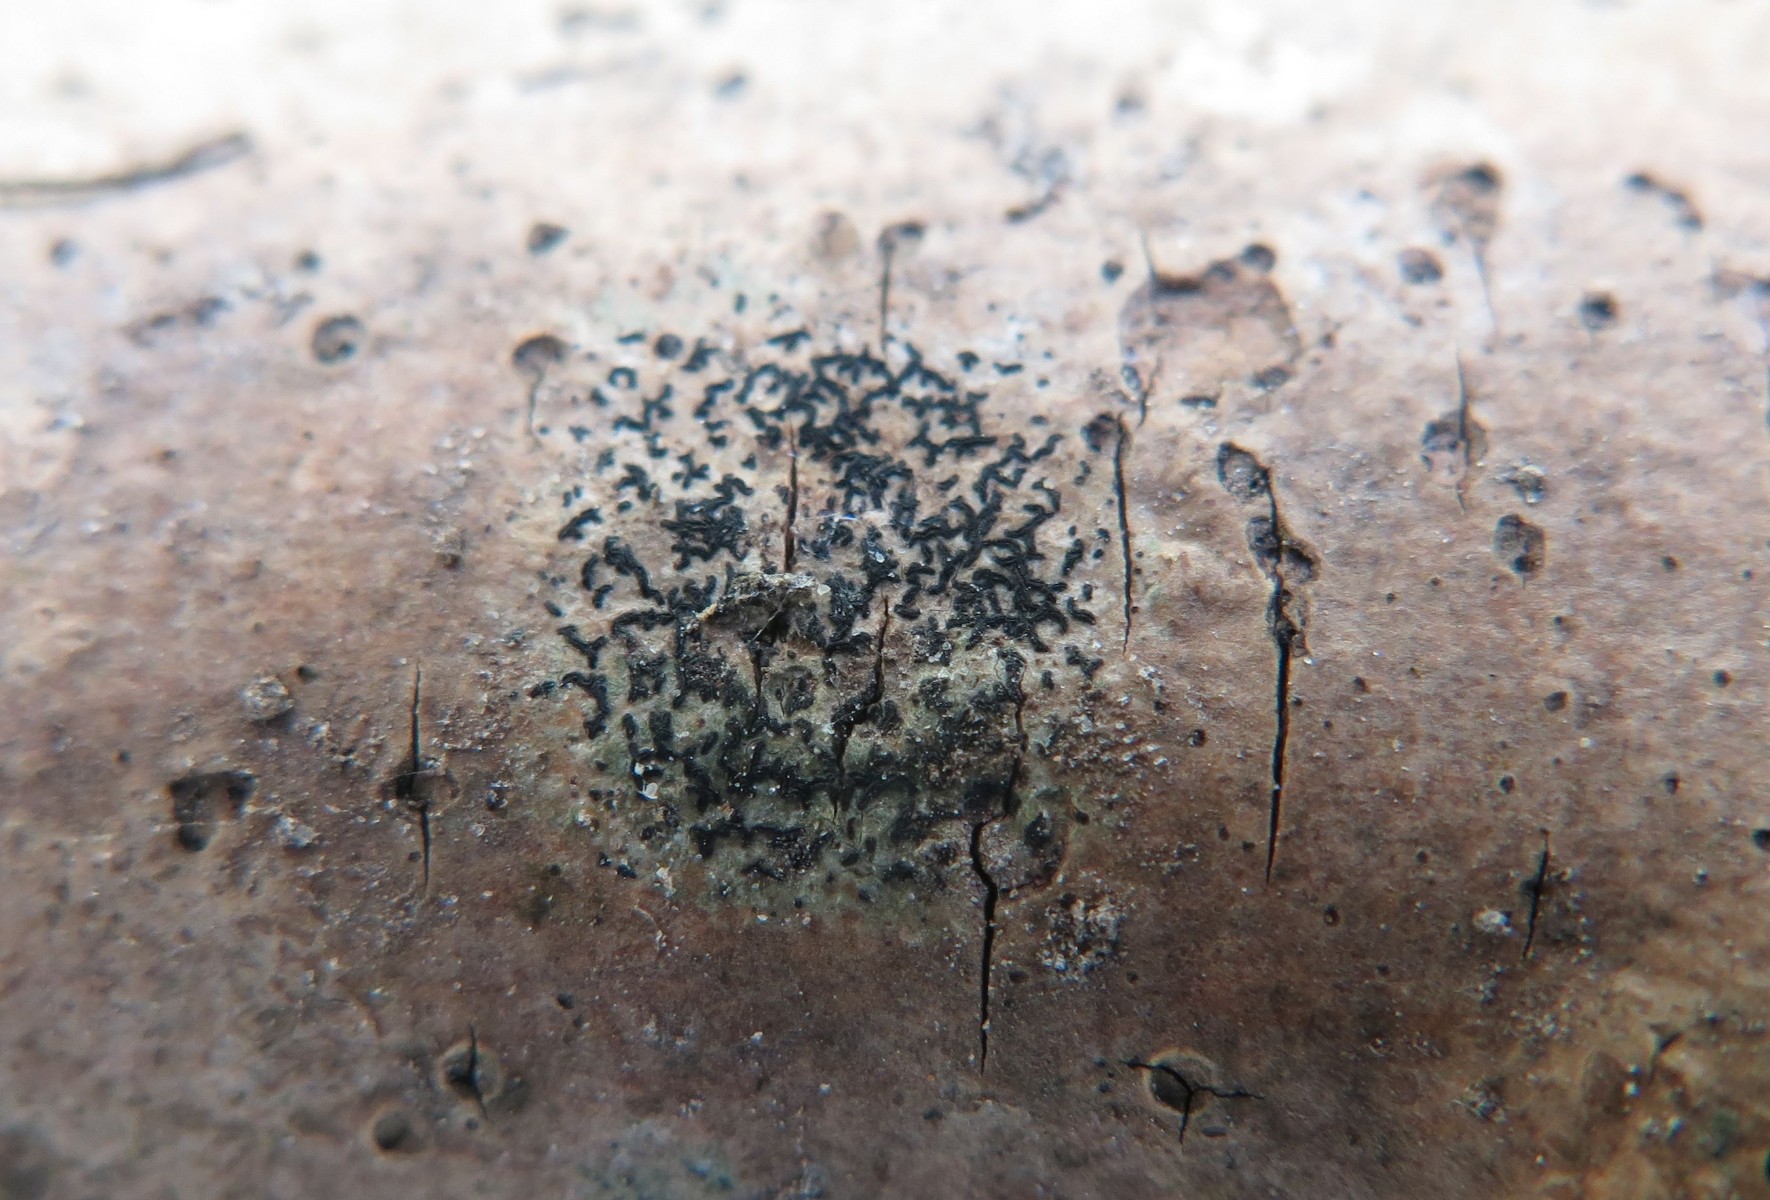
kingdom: Fungi
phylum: Ascomycota
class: Arthoniomycetes
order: Arthoniales
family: Arthoniaceae
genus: Arthonia
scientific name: Arthonia atra
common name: sort bogstavlav
